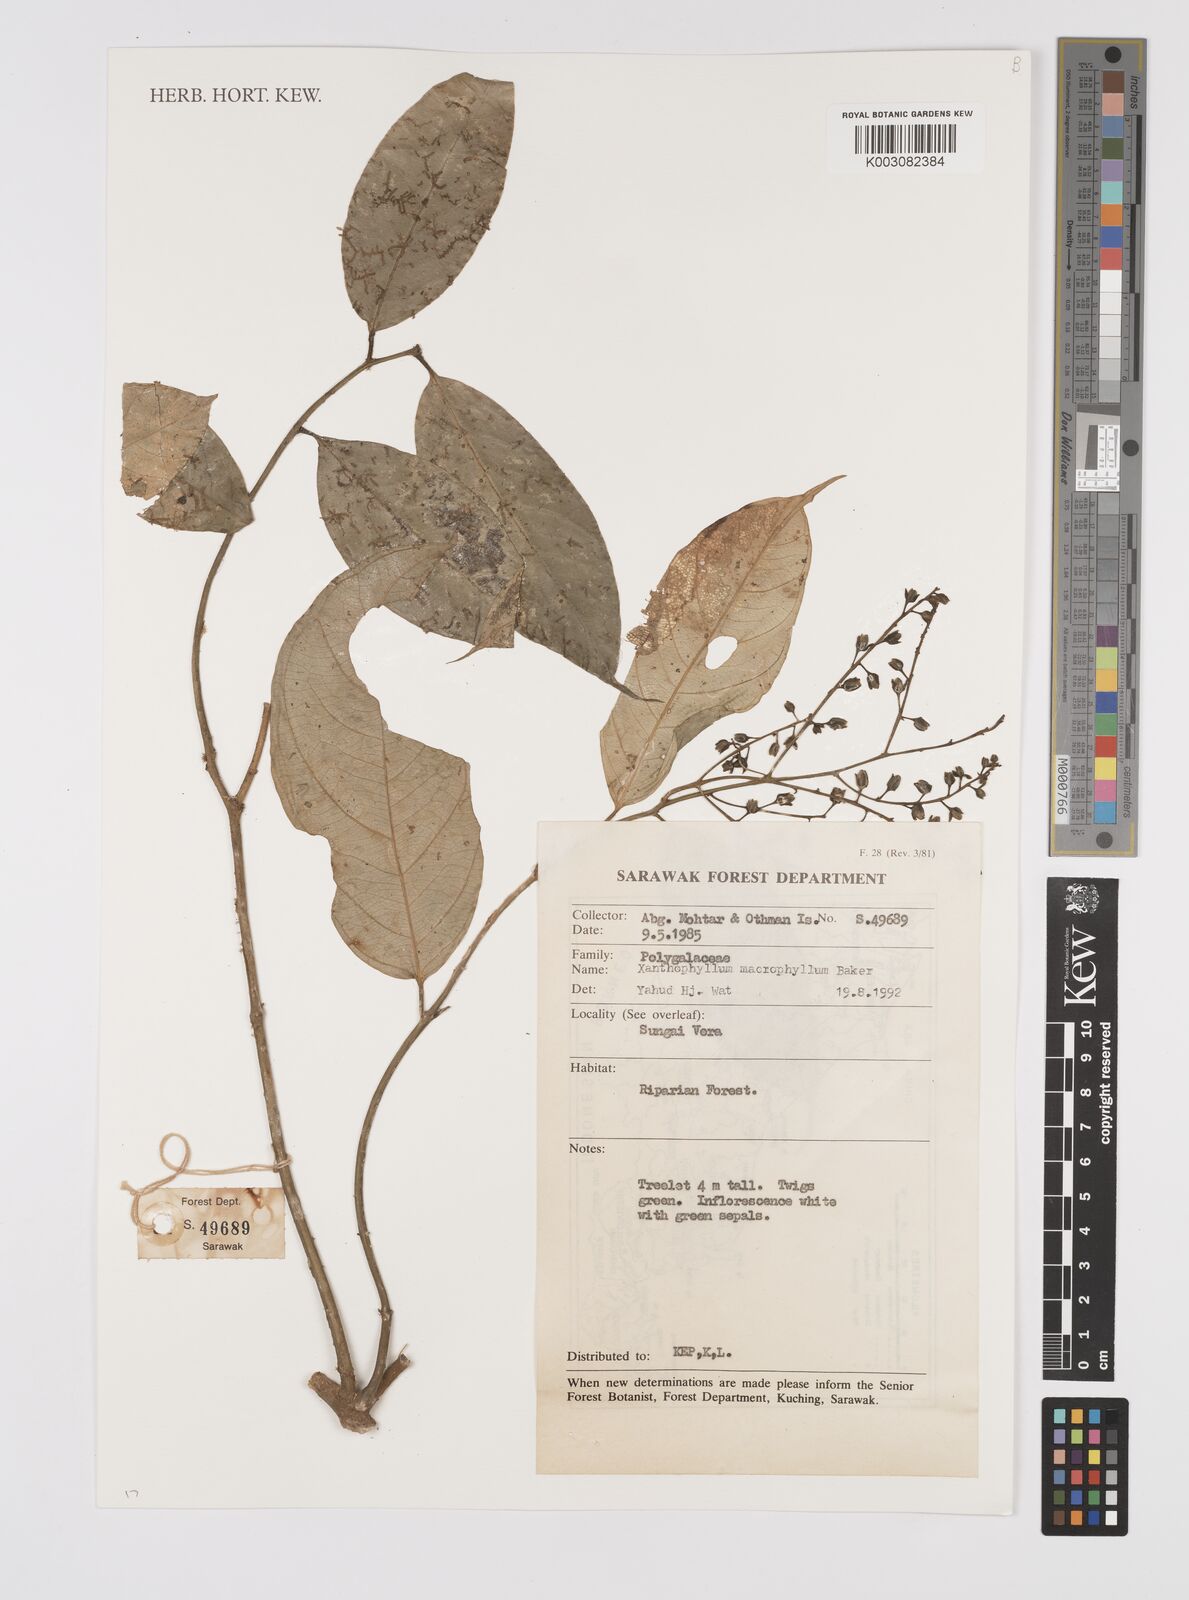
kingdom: Plantae
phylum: Tracheophyta
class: Magnoliopsida
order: Fabales
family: Polygalaceae
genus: Xanthophyllum
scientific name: Xanthophyllum macrophyllum
